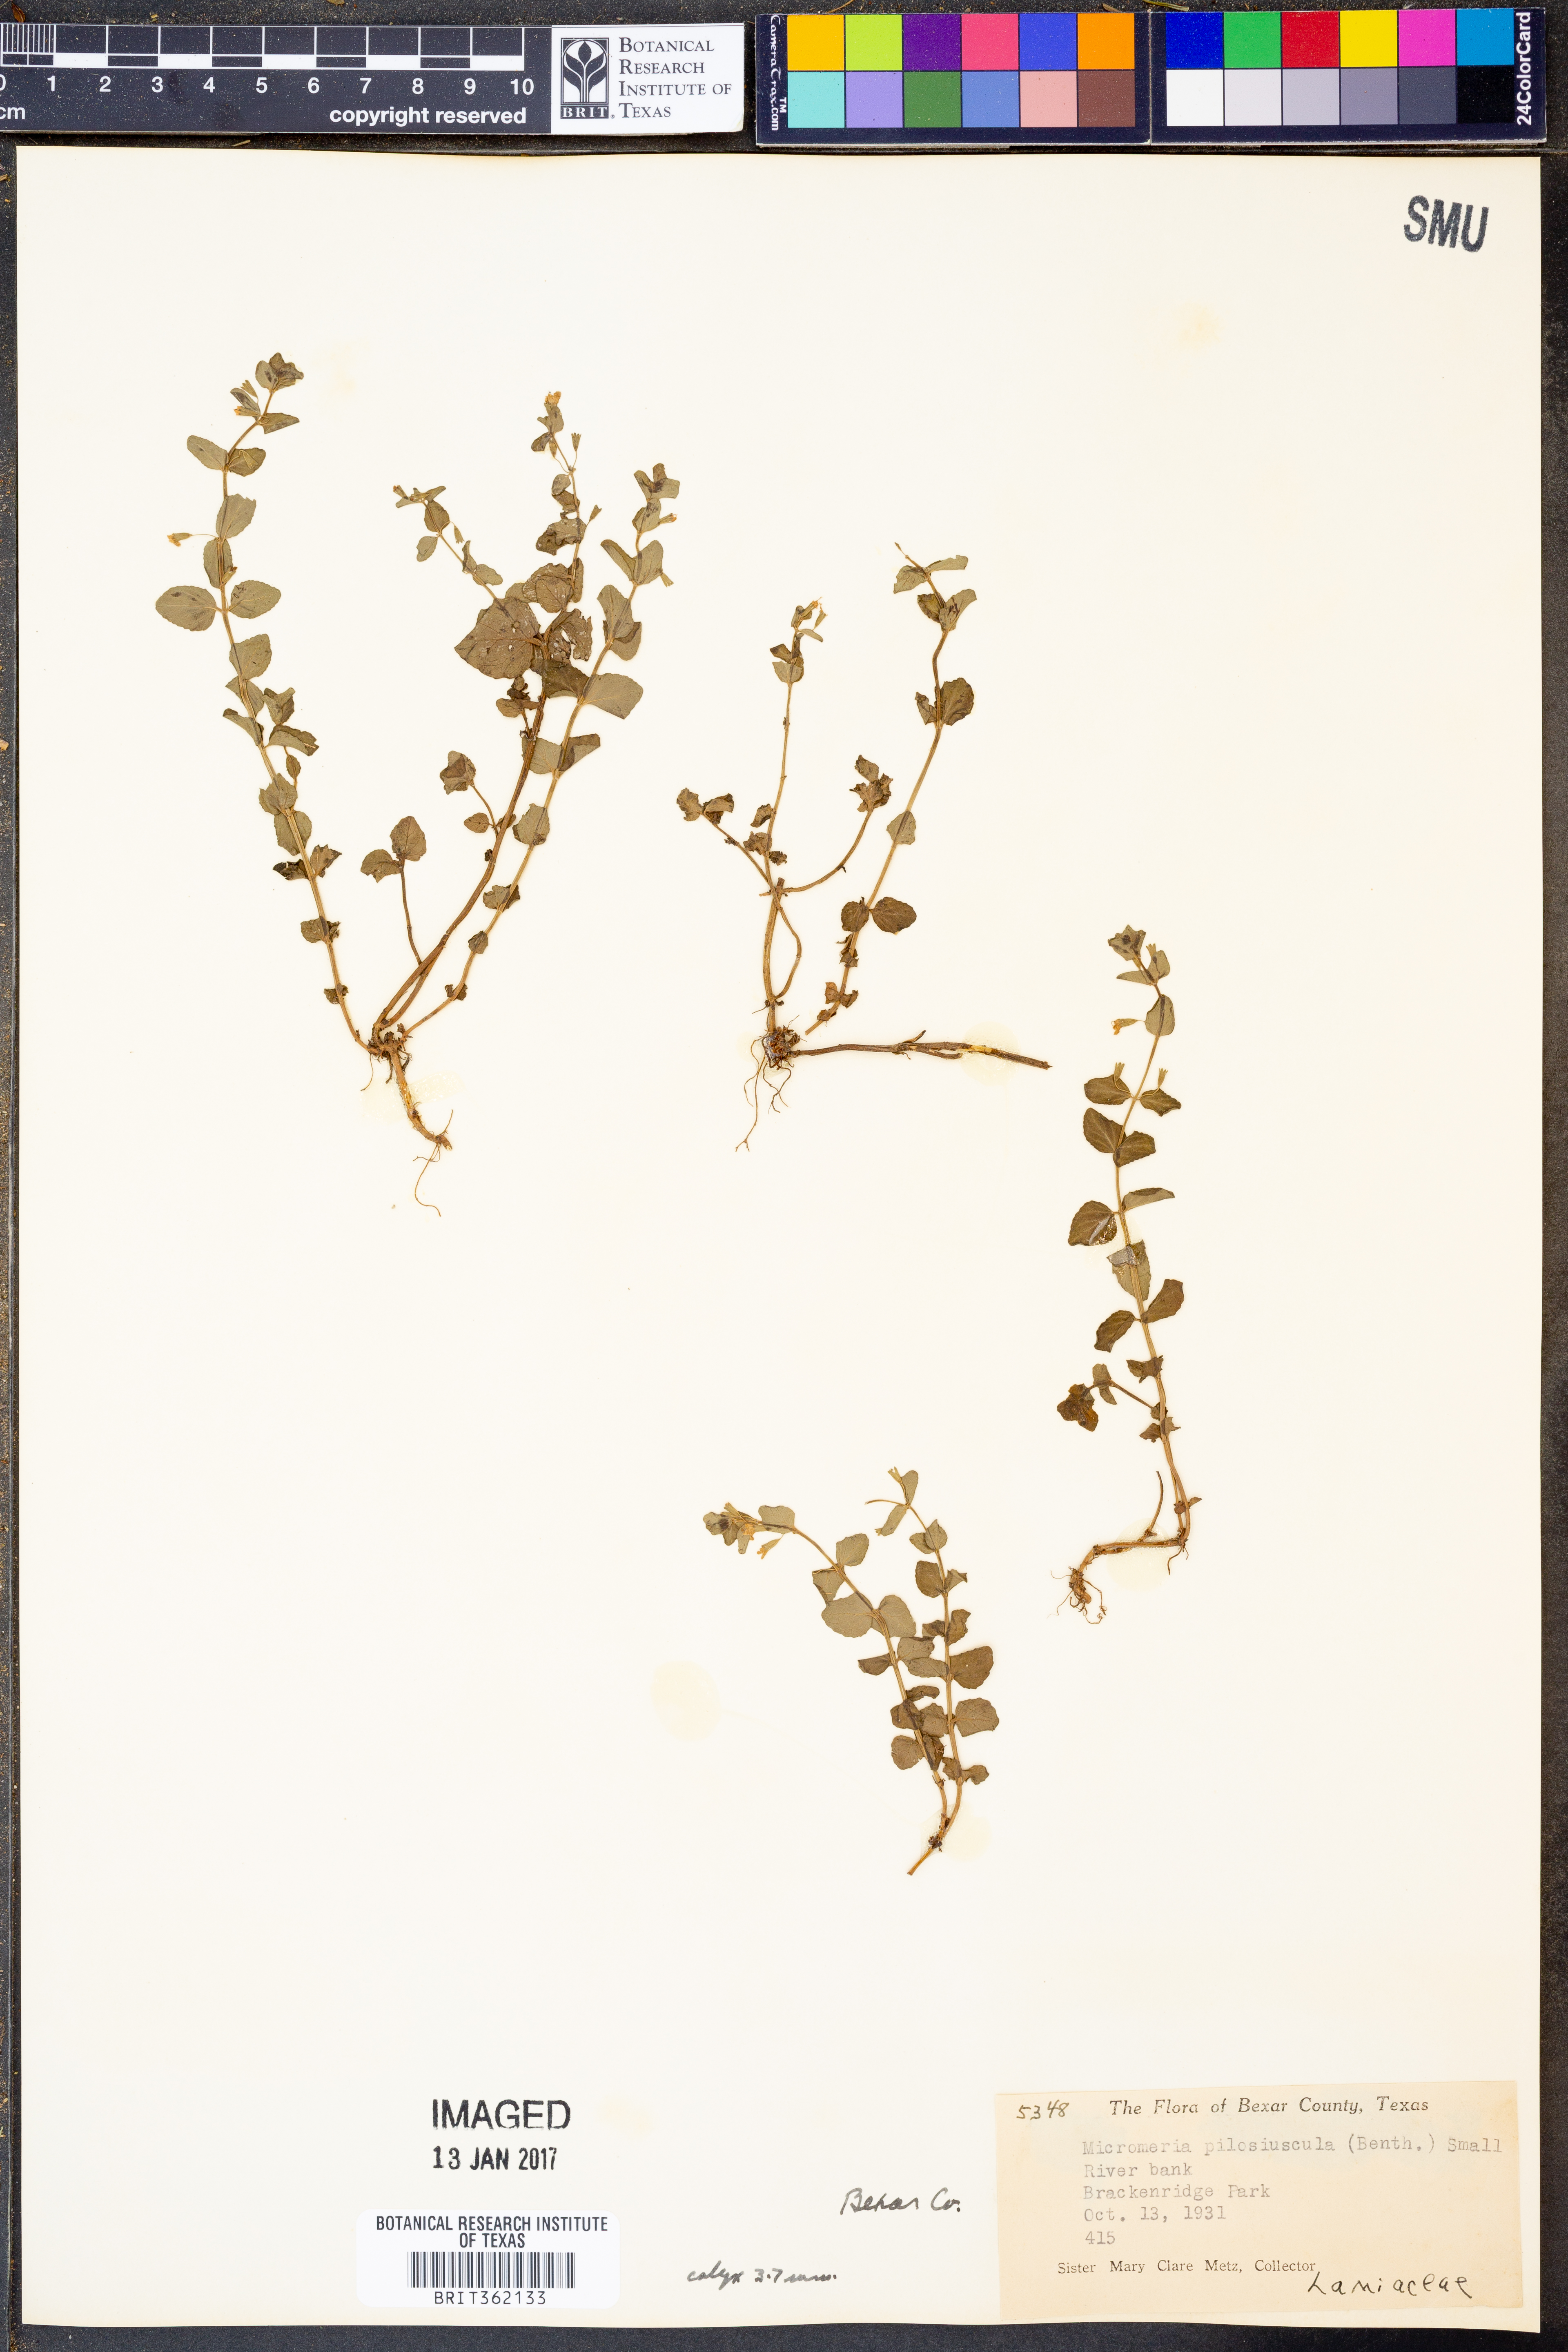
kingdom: Plantae
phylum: Tracheophyta
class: Magnoliopsida
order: Lamiales
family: Lamiaceae
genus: Clinopodium
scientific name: Clinopodium brownei
